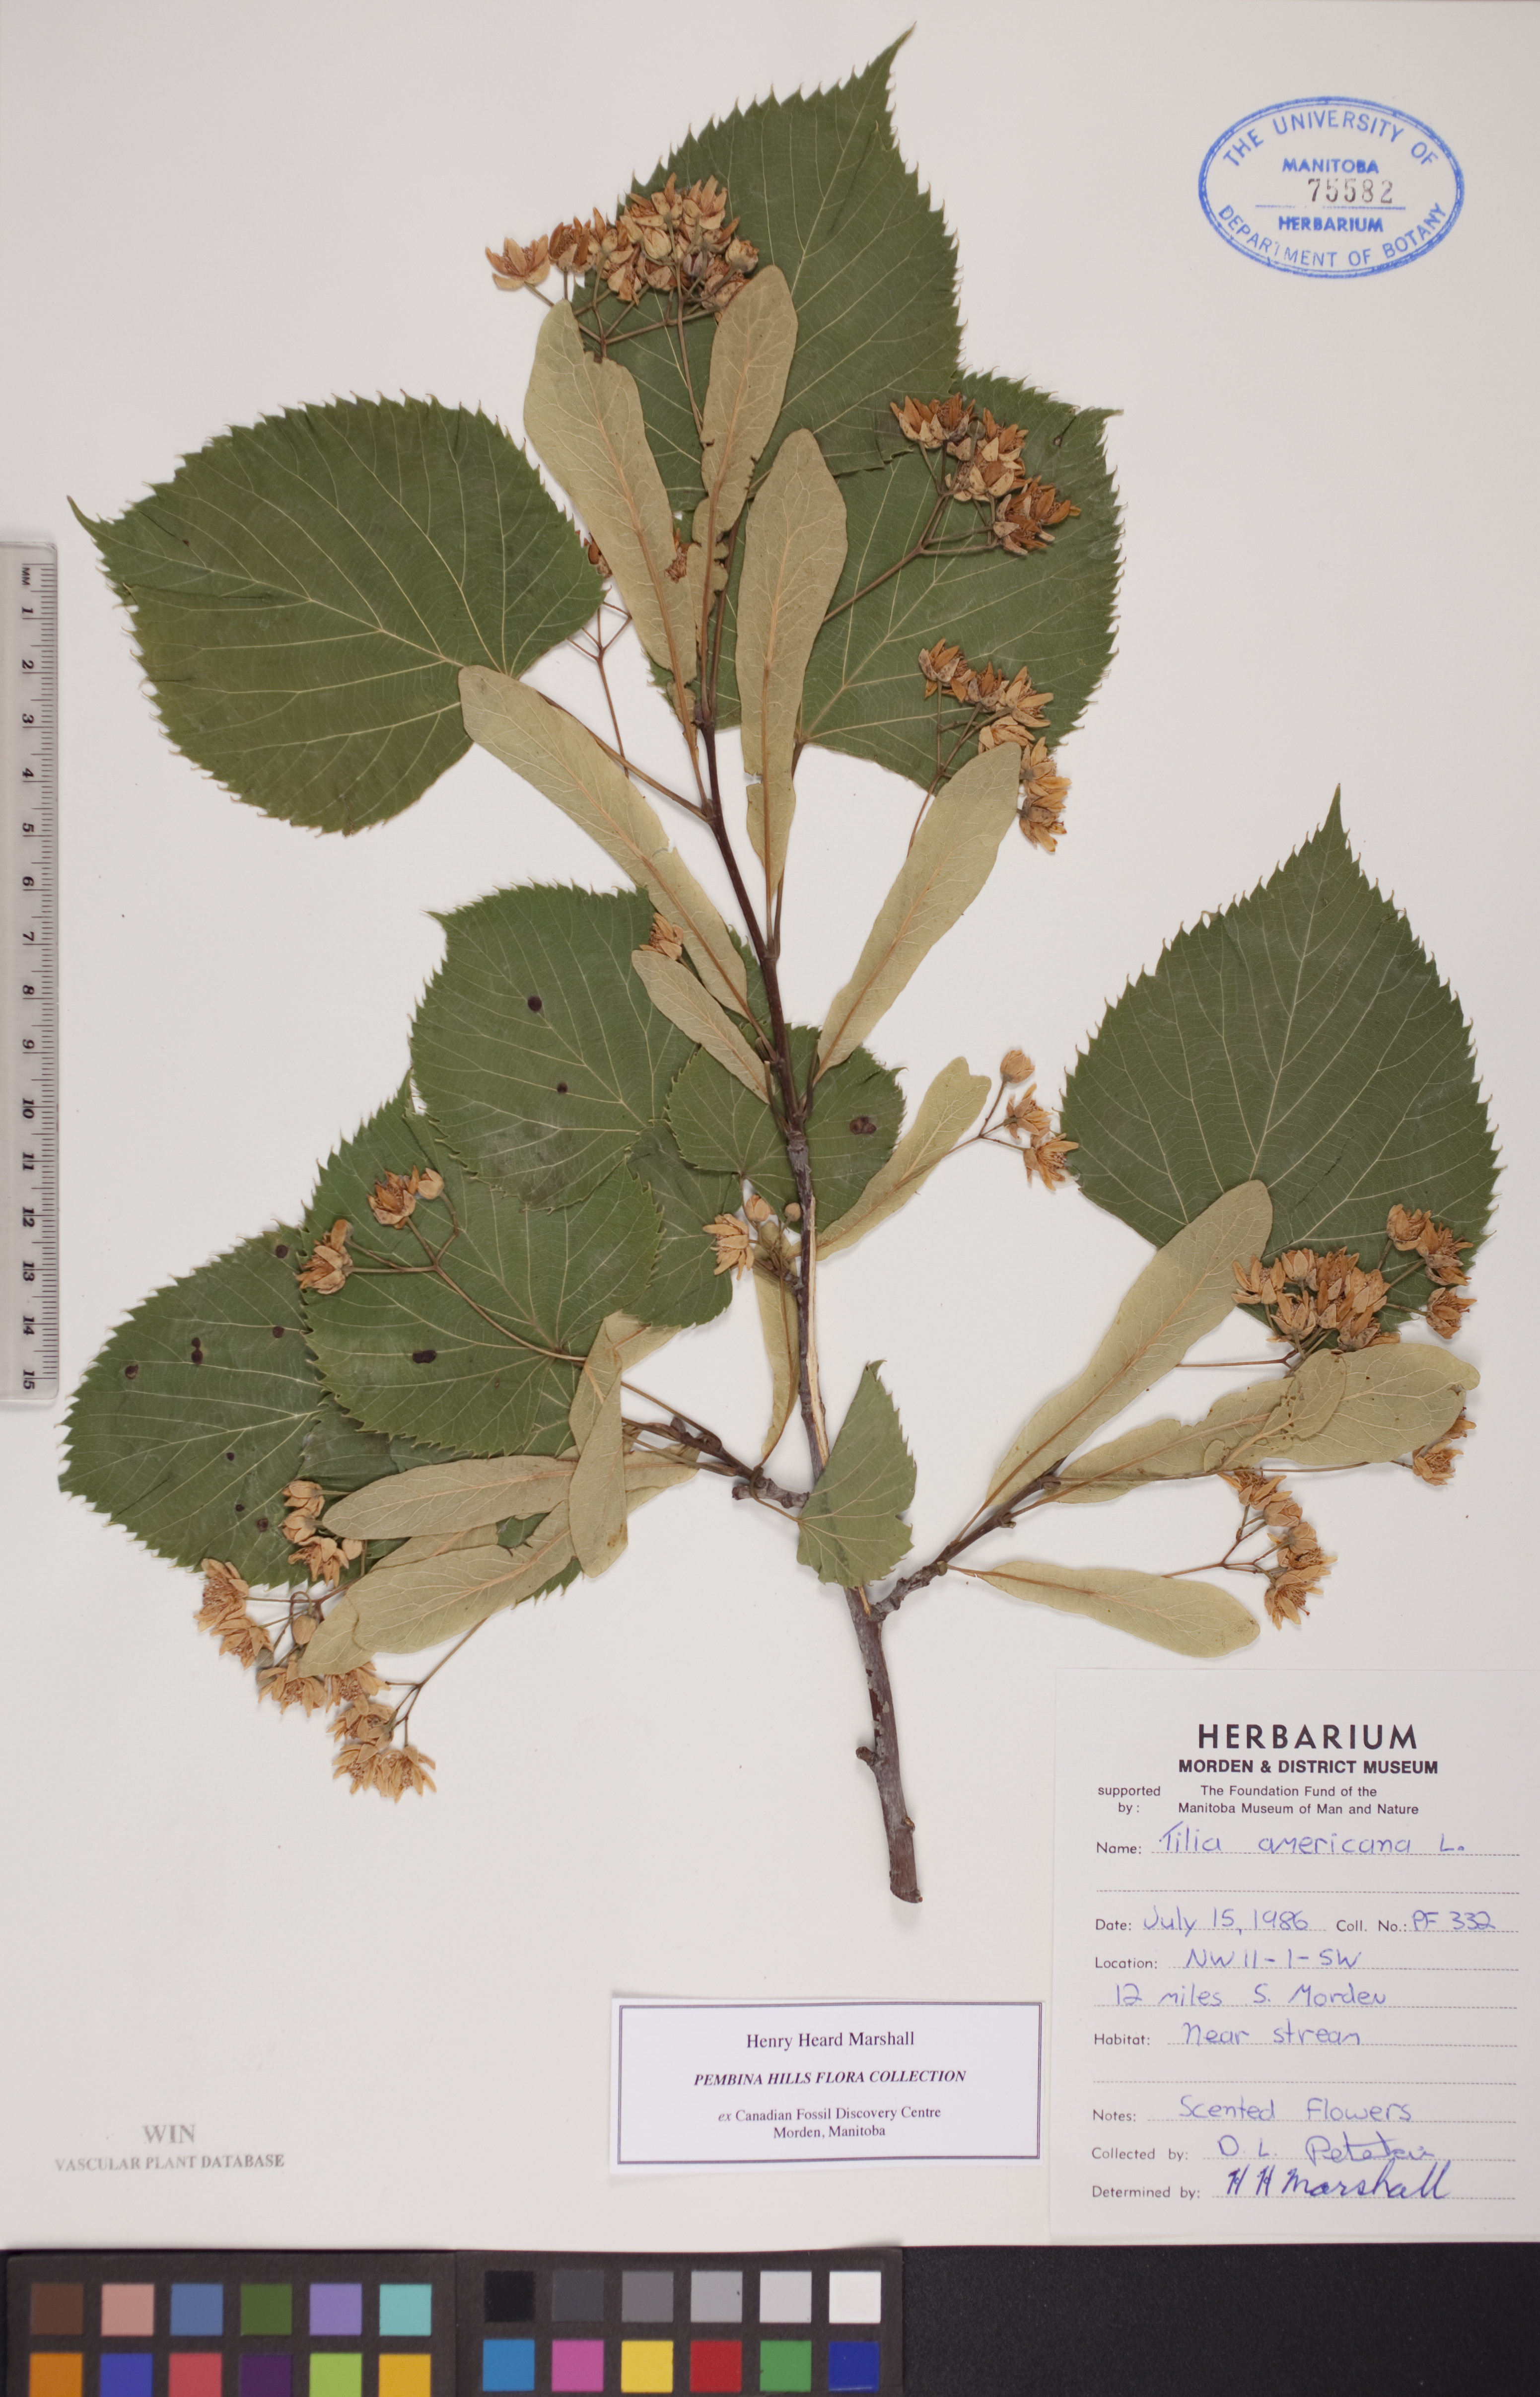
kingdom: Plantae
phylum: Tracheophyta
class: Magnoliopsida
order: Malvales
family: Malvaceae
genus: Tilia
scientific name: Tilia americana
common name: Basswood
